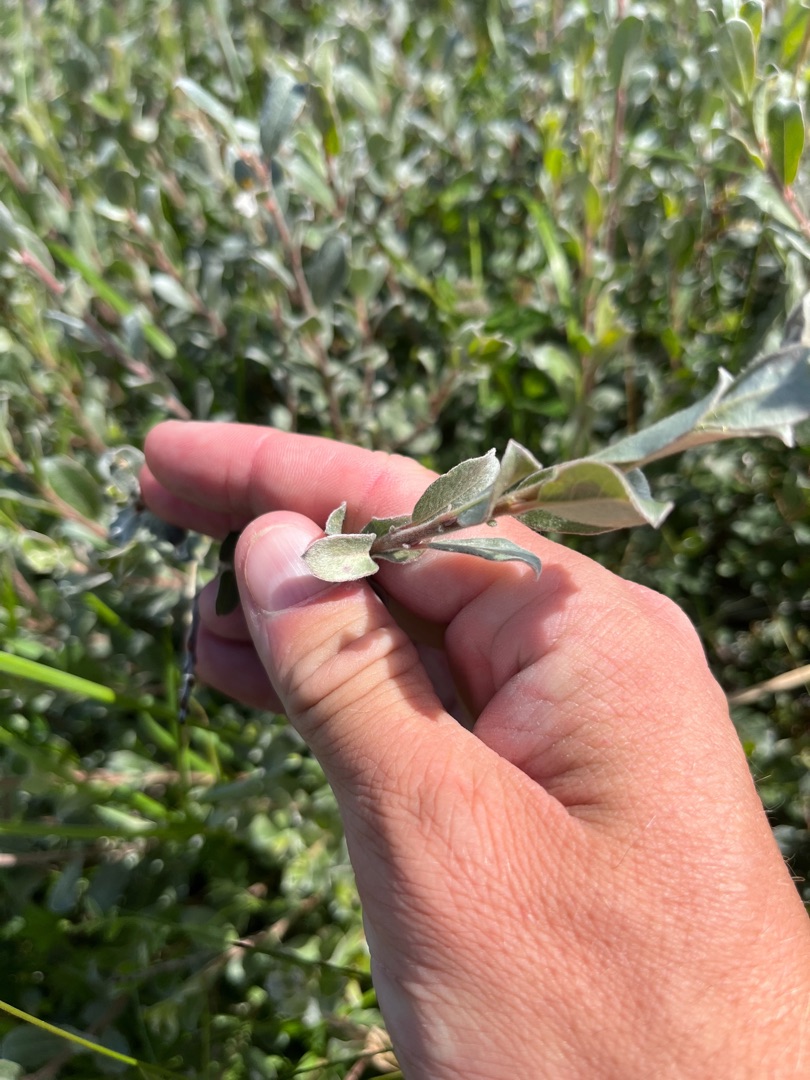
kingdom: Plantae
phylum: Tracheophyta
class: Magnoliopsida
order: Malpighiales
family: Salicaceae
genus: Salix
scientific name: Salix repens
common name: Gråris
